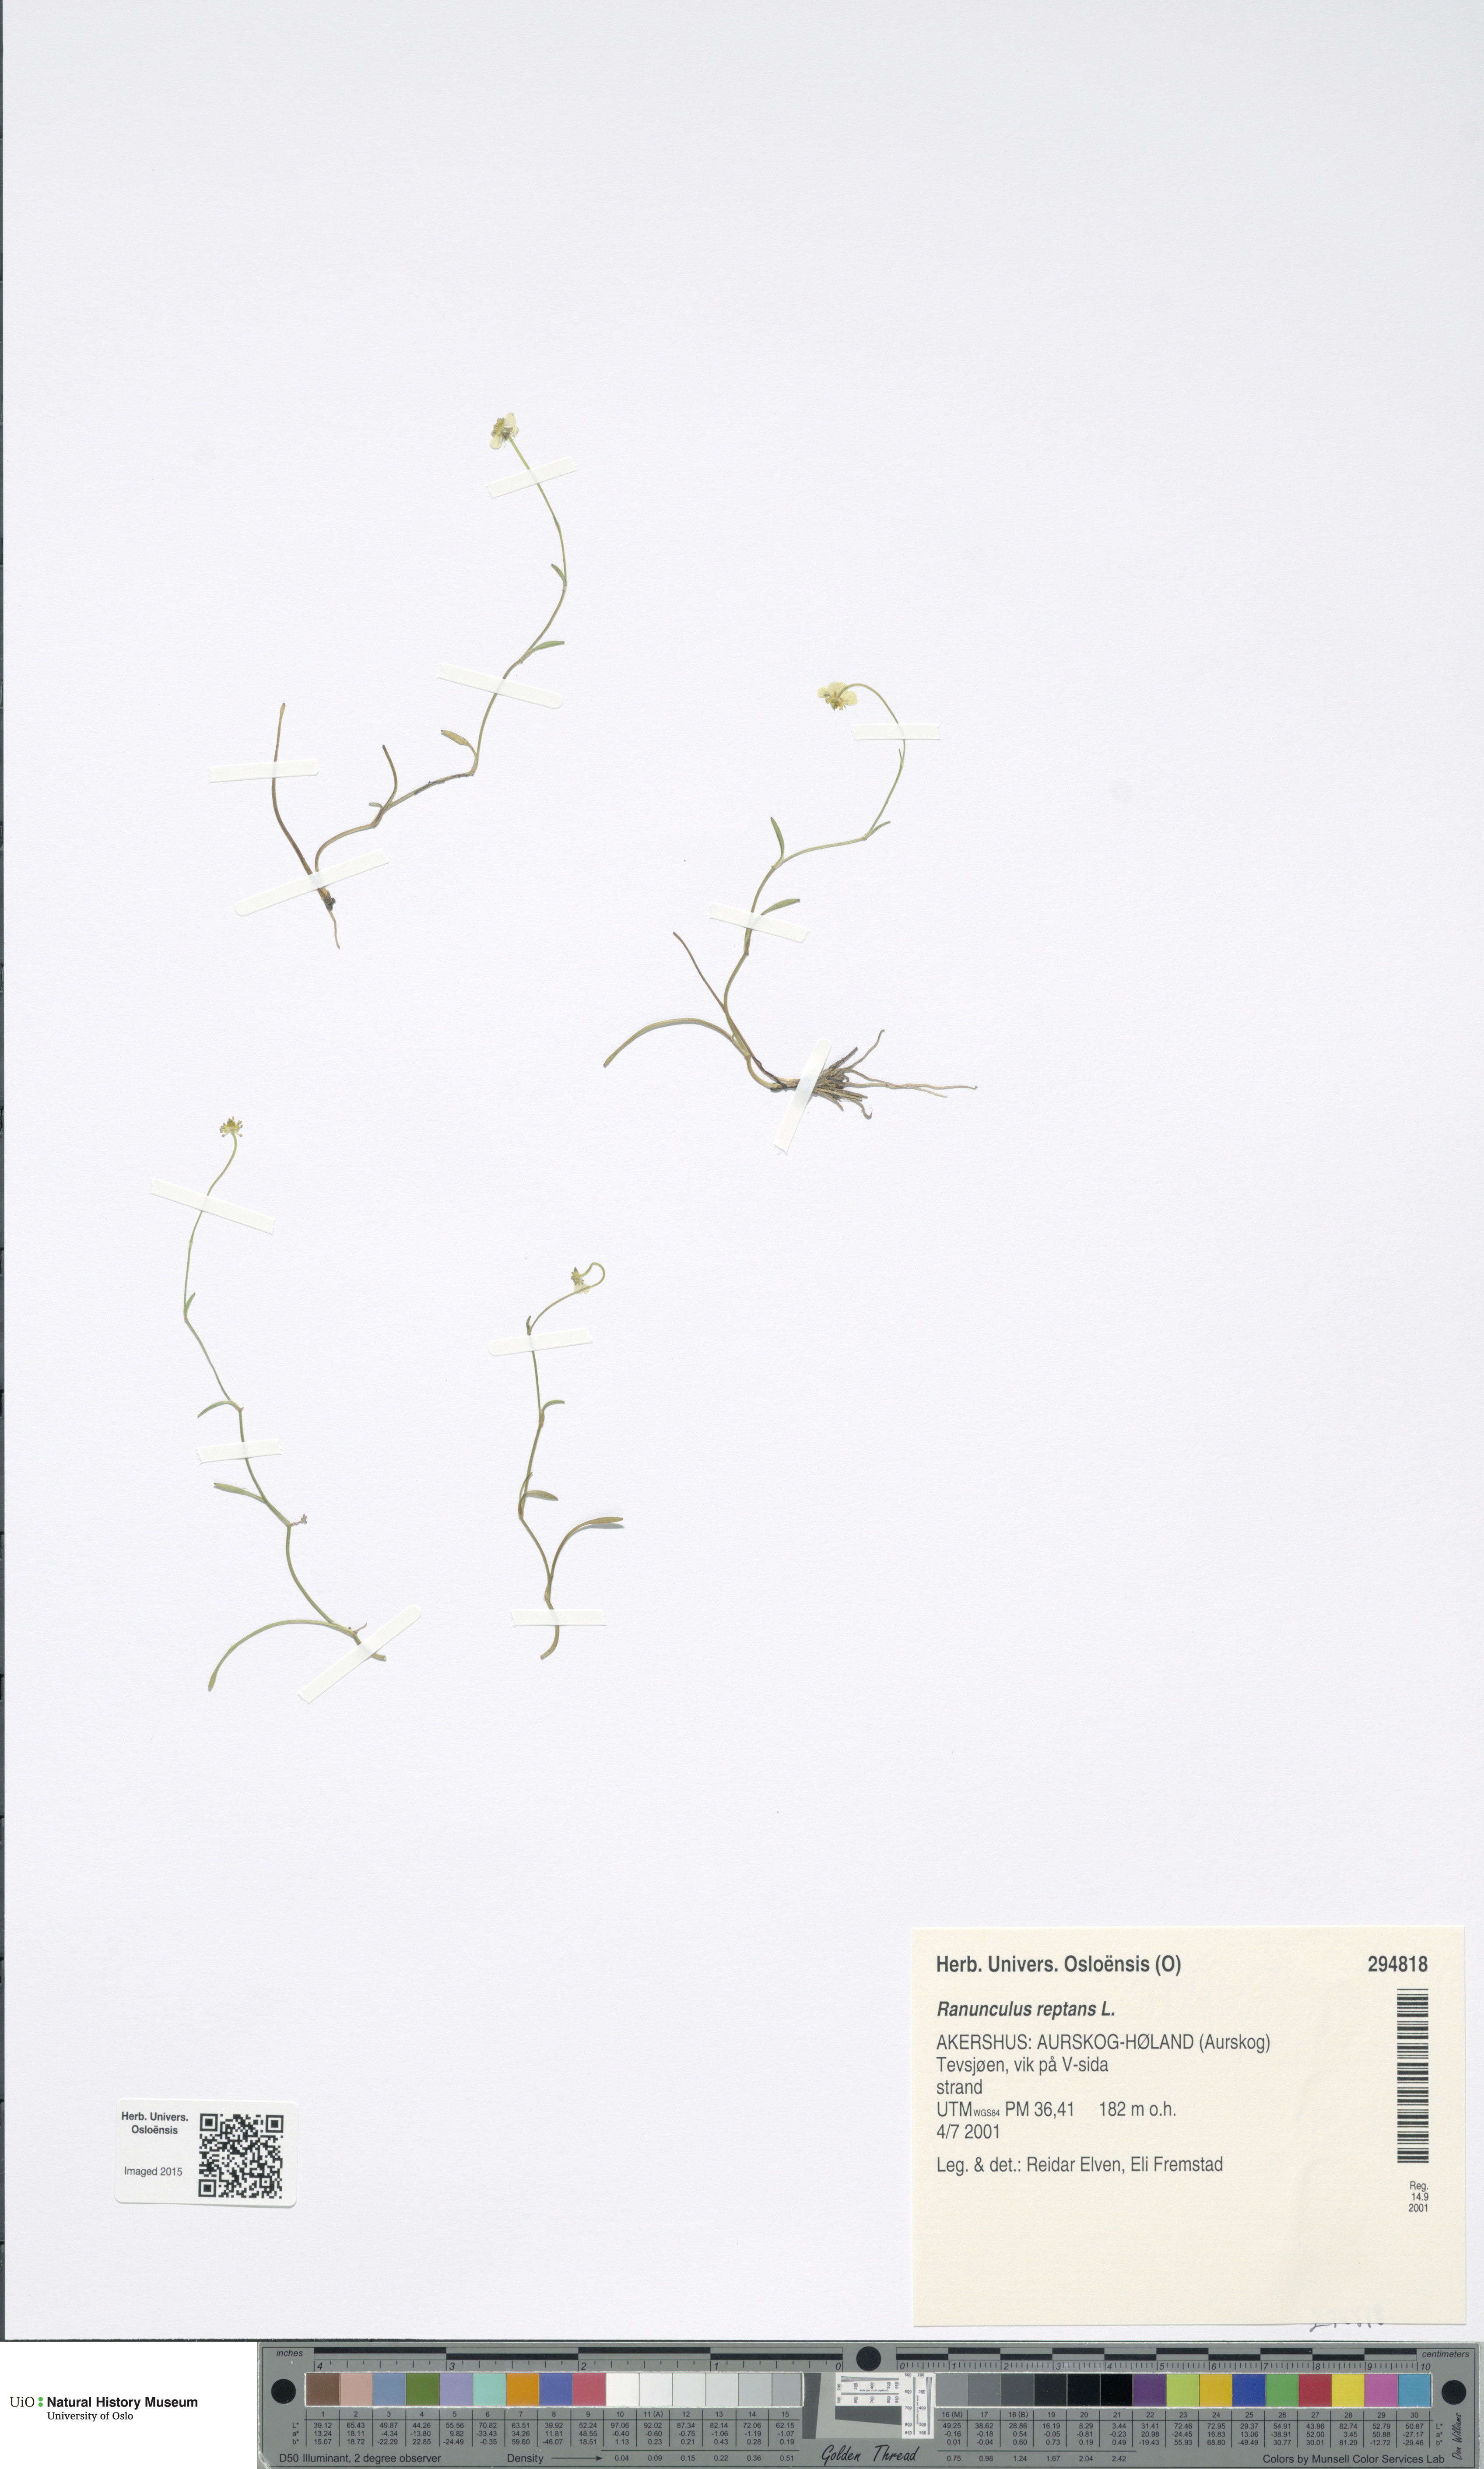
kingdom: Plantae
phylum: Tracheophyta
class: Magnoliopsida
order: Ranunculales
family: Ranunculaceae
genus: Ranunculus
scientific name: Ranunculus reptans
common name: Creeping spearwort
